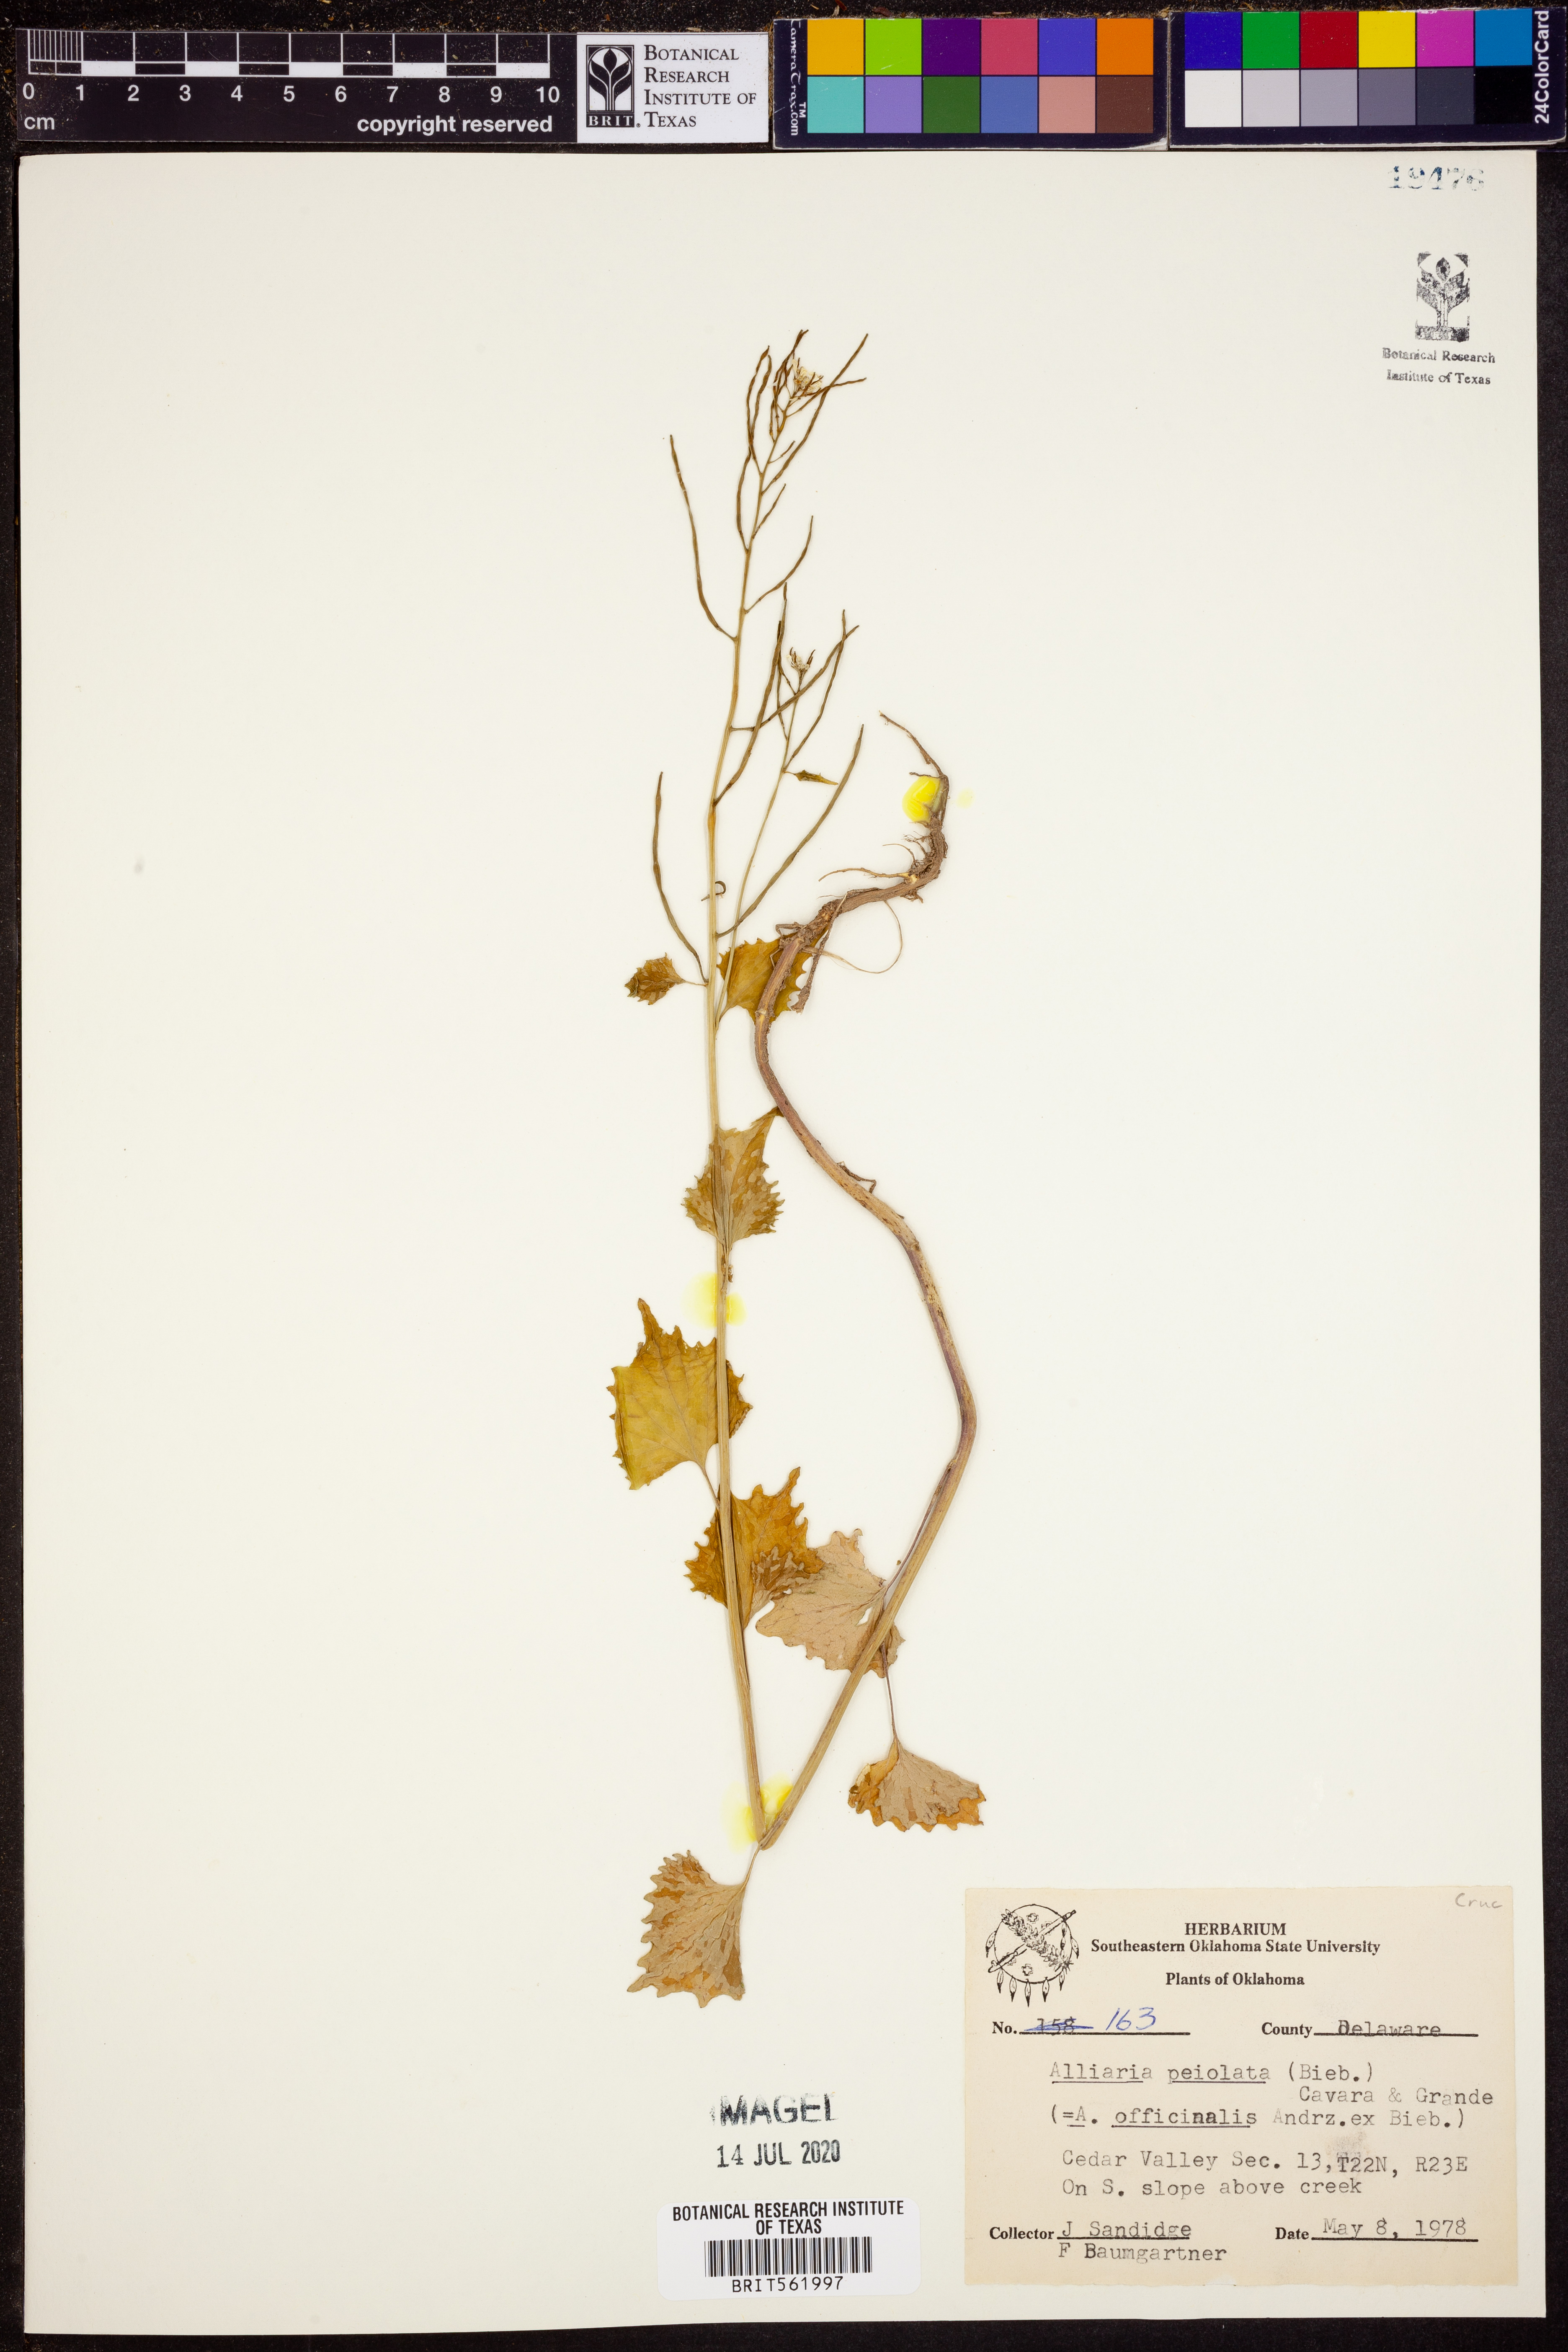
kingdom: Plantae
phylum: Tracheophyta
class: Magnoliopsida
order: Brassicales
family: Brassicaceae
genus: Alliaria
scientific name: Alliaria petiolata
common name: Garlic mustard
